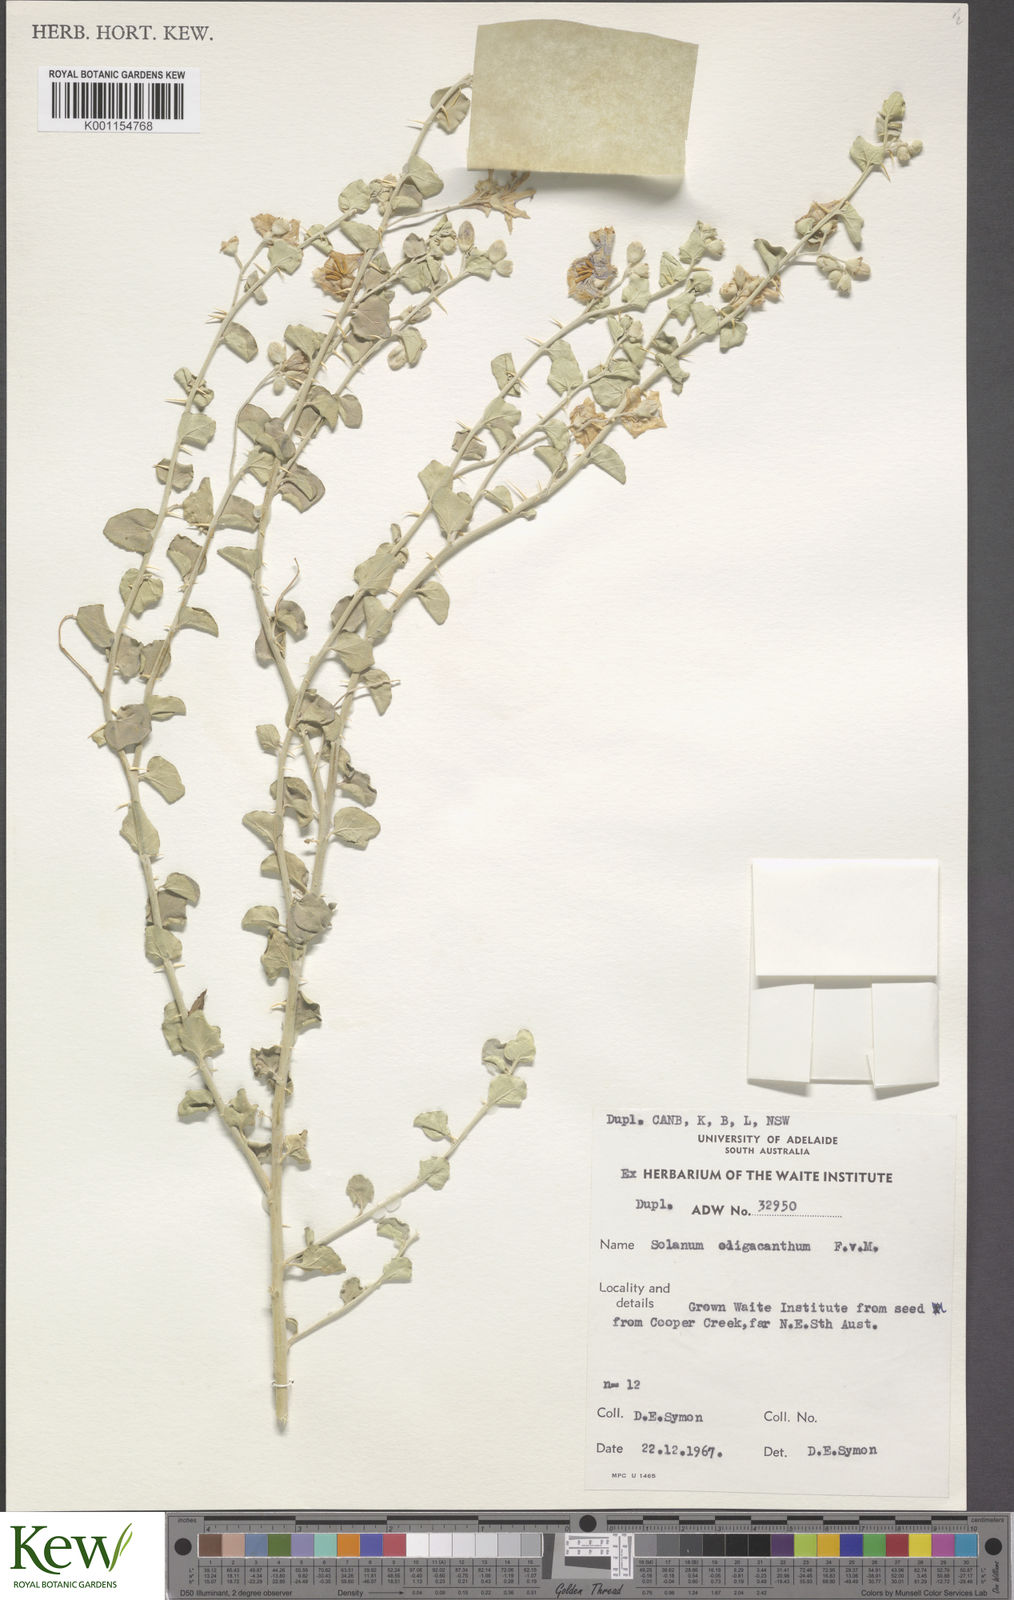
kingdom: Plantae
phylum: Tracheophyta
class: Magnoliopsida
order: Solanales
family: Solanaceae
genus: Solanum
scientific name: Solanum oligacanthum
